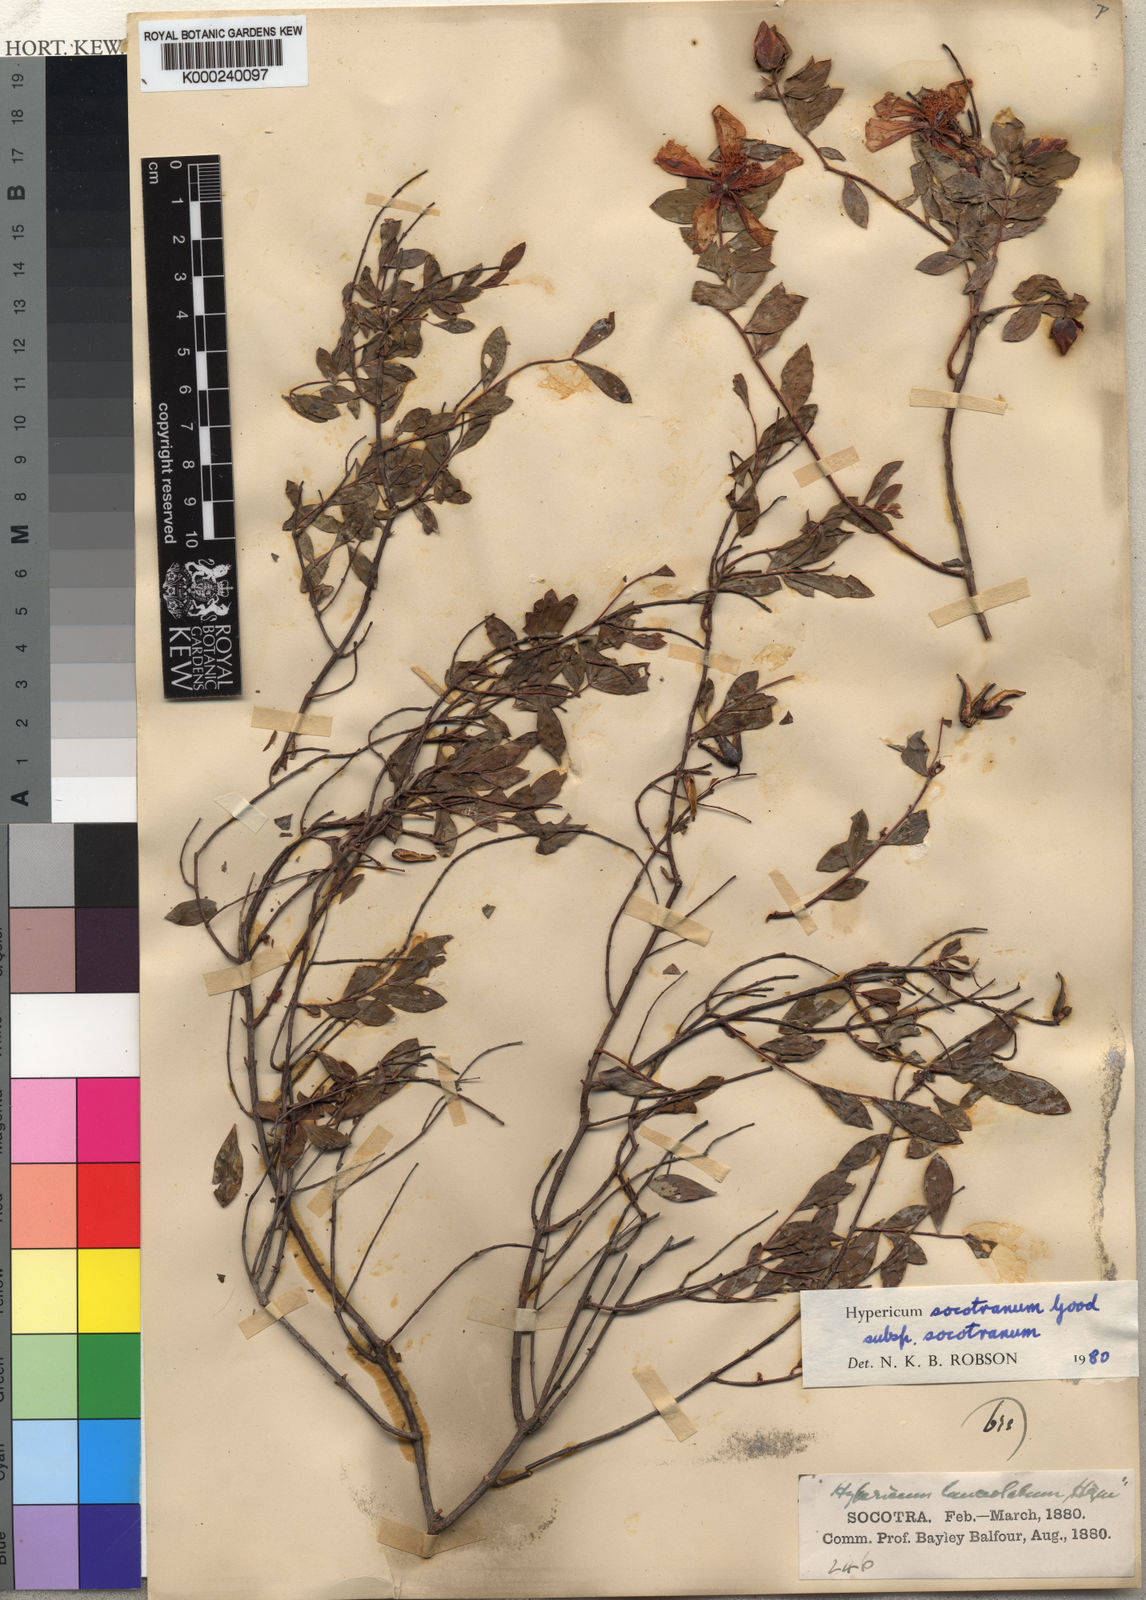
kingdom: Plantae
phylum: Tracheophyta
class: Magnoliopsida
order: Malpighiales
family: Hypericaceae
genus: Hypericum
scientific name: Hypericum socotranum
